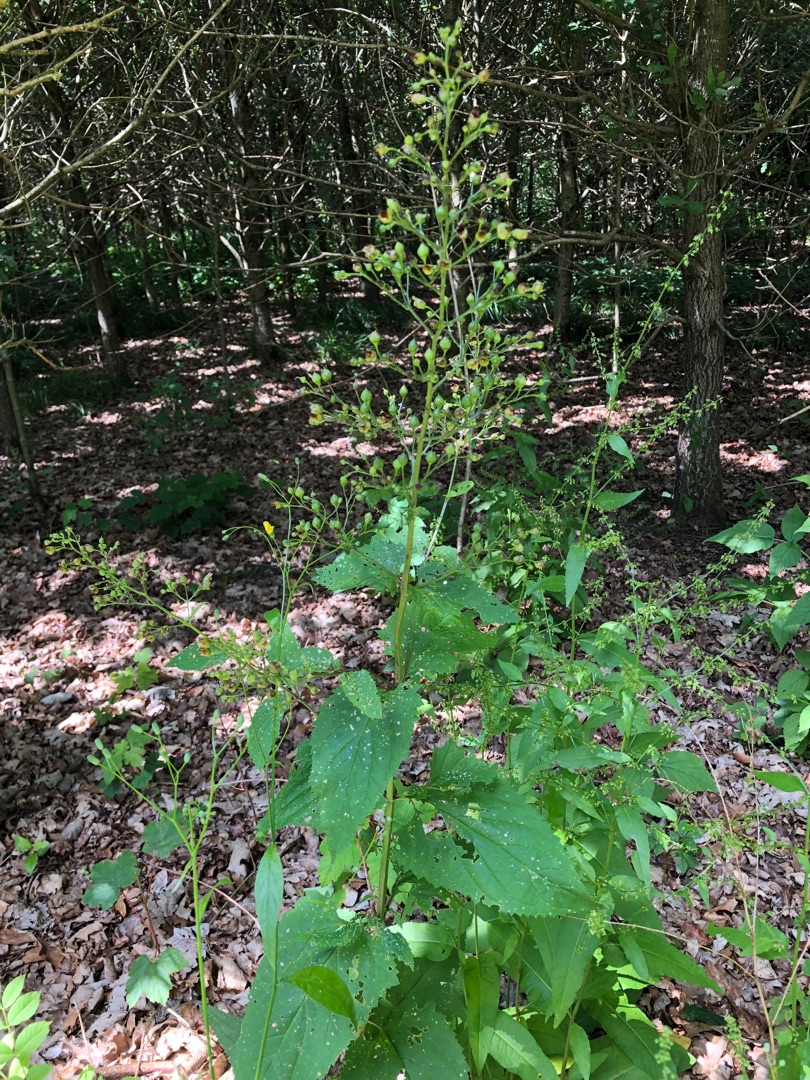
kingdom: Plantae
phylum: Tracheophyta
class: Magnoliopsida
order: Lamiales
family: Scrophulariaceae
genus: Scrophularia
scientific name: Scrophularia nodosa
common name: Knoldet brunrod
